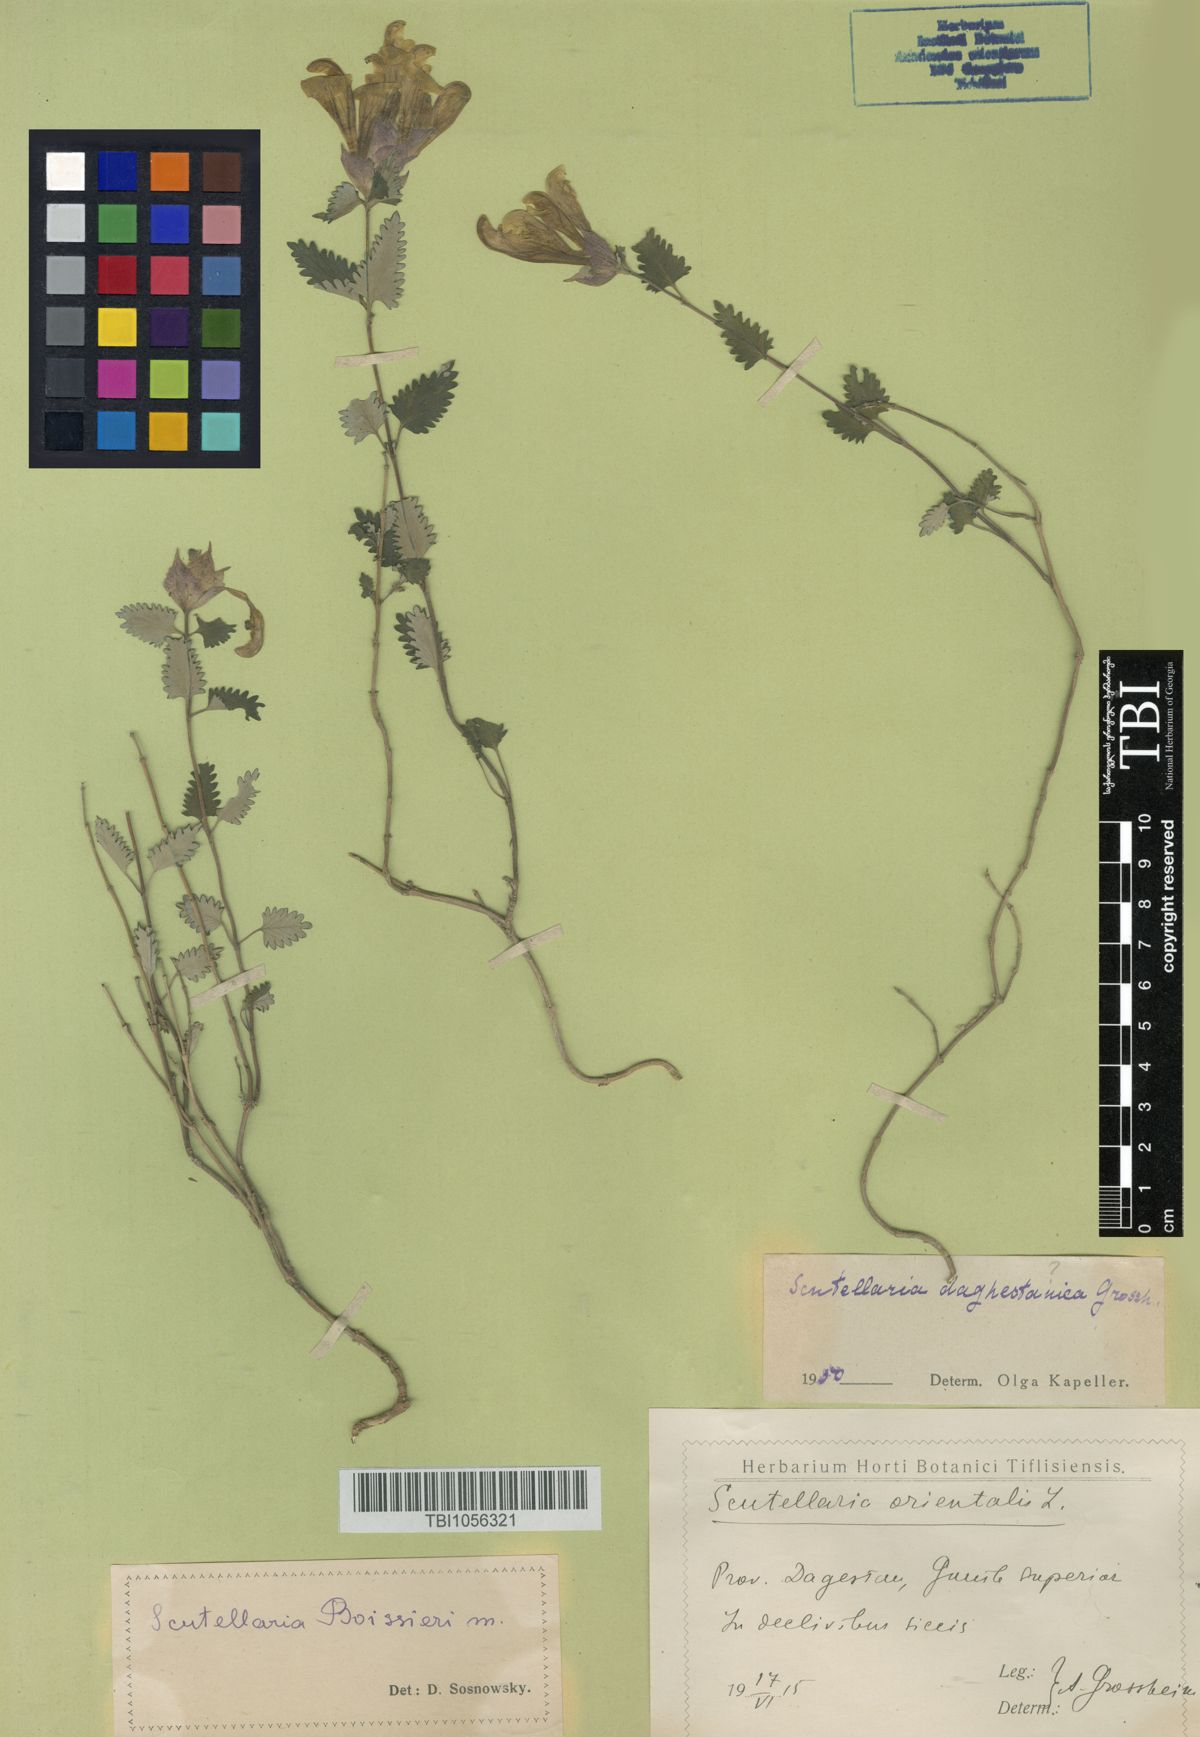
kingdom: Plantae
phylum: Tracheophyta
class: Magnoliopsida
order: Lamiales
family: Lamiaceae
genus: Scutellaria
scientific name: Scutellaria daghestanica
